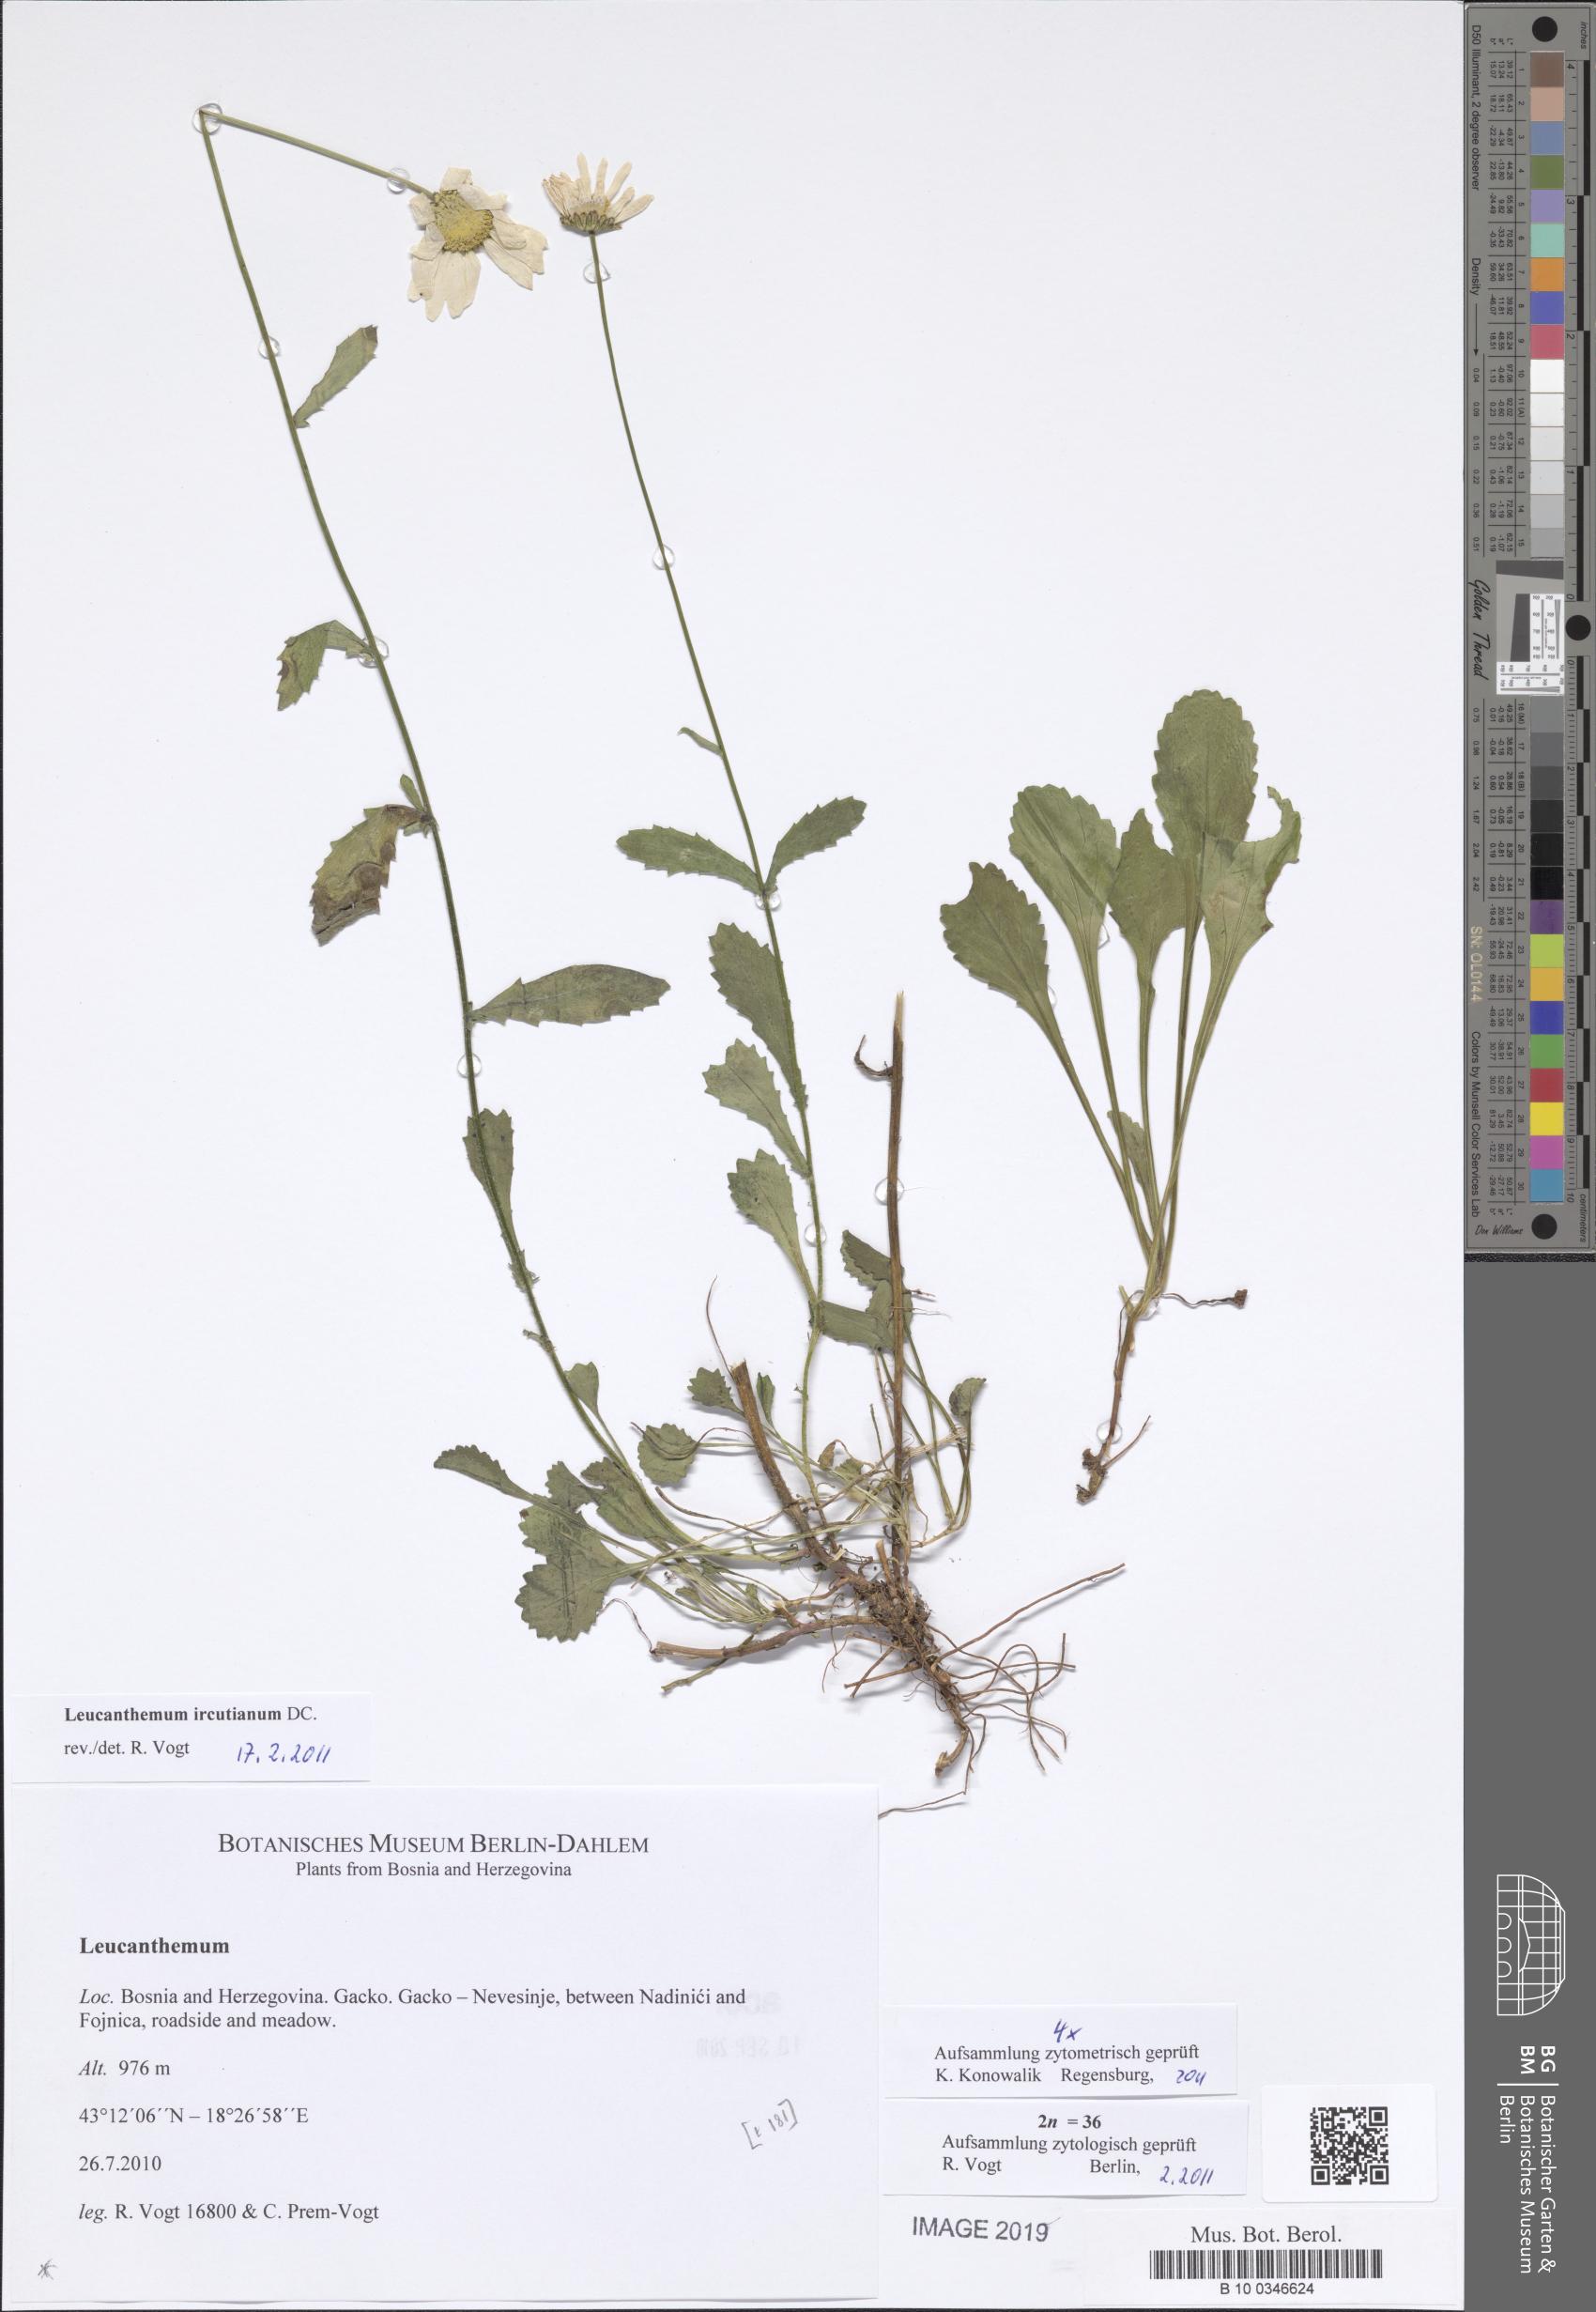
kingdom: Plantae
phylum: Tracheophyta
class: Magnoliopsida
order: Asterales
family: Asteraceae
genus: Leucanthemum
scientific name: Leucanthemum ircutianum
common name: Daisy
